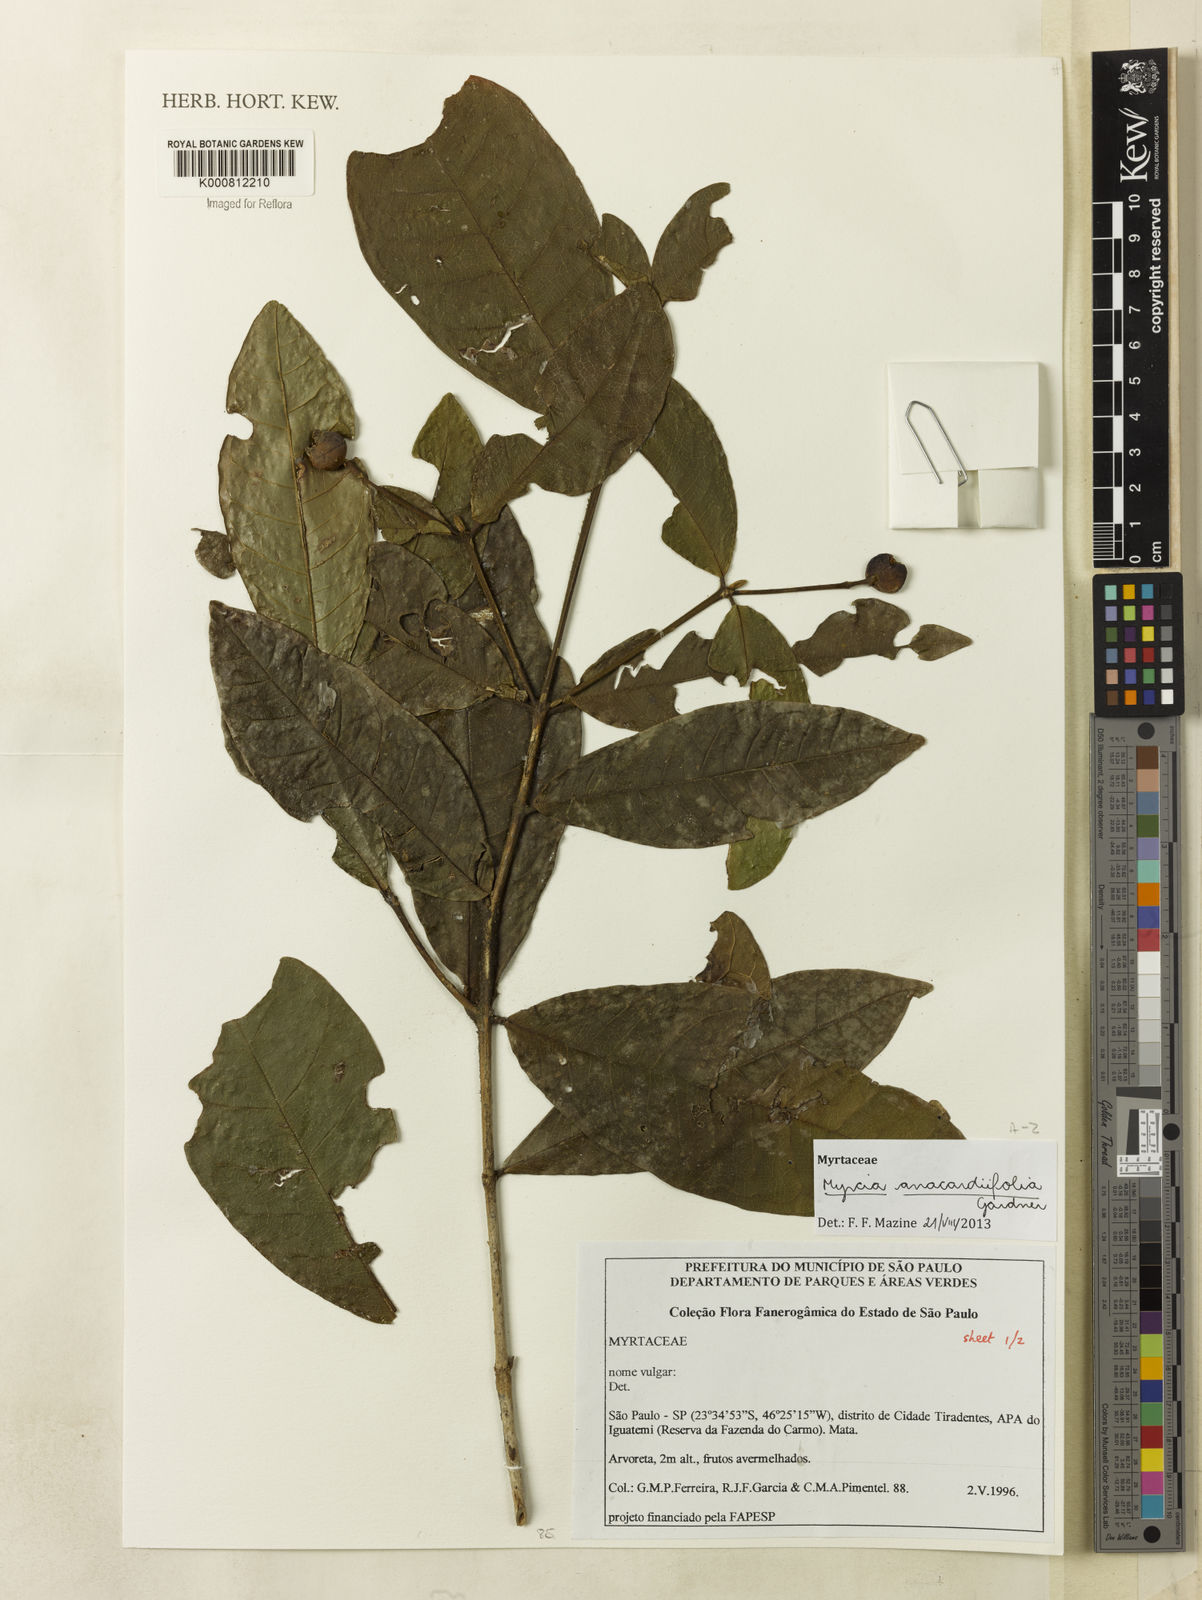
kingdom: Plantae
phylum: Tracheophyta
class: Magnoliopsida
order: Myrtales
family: Myrtaceae
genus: Myrcia
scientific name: Myrcia anacardiifolia
